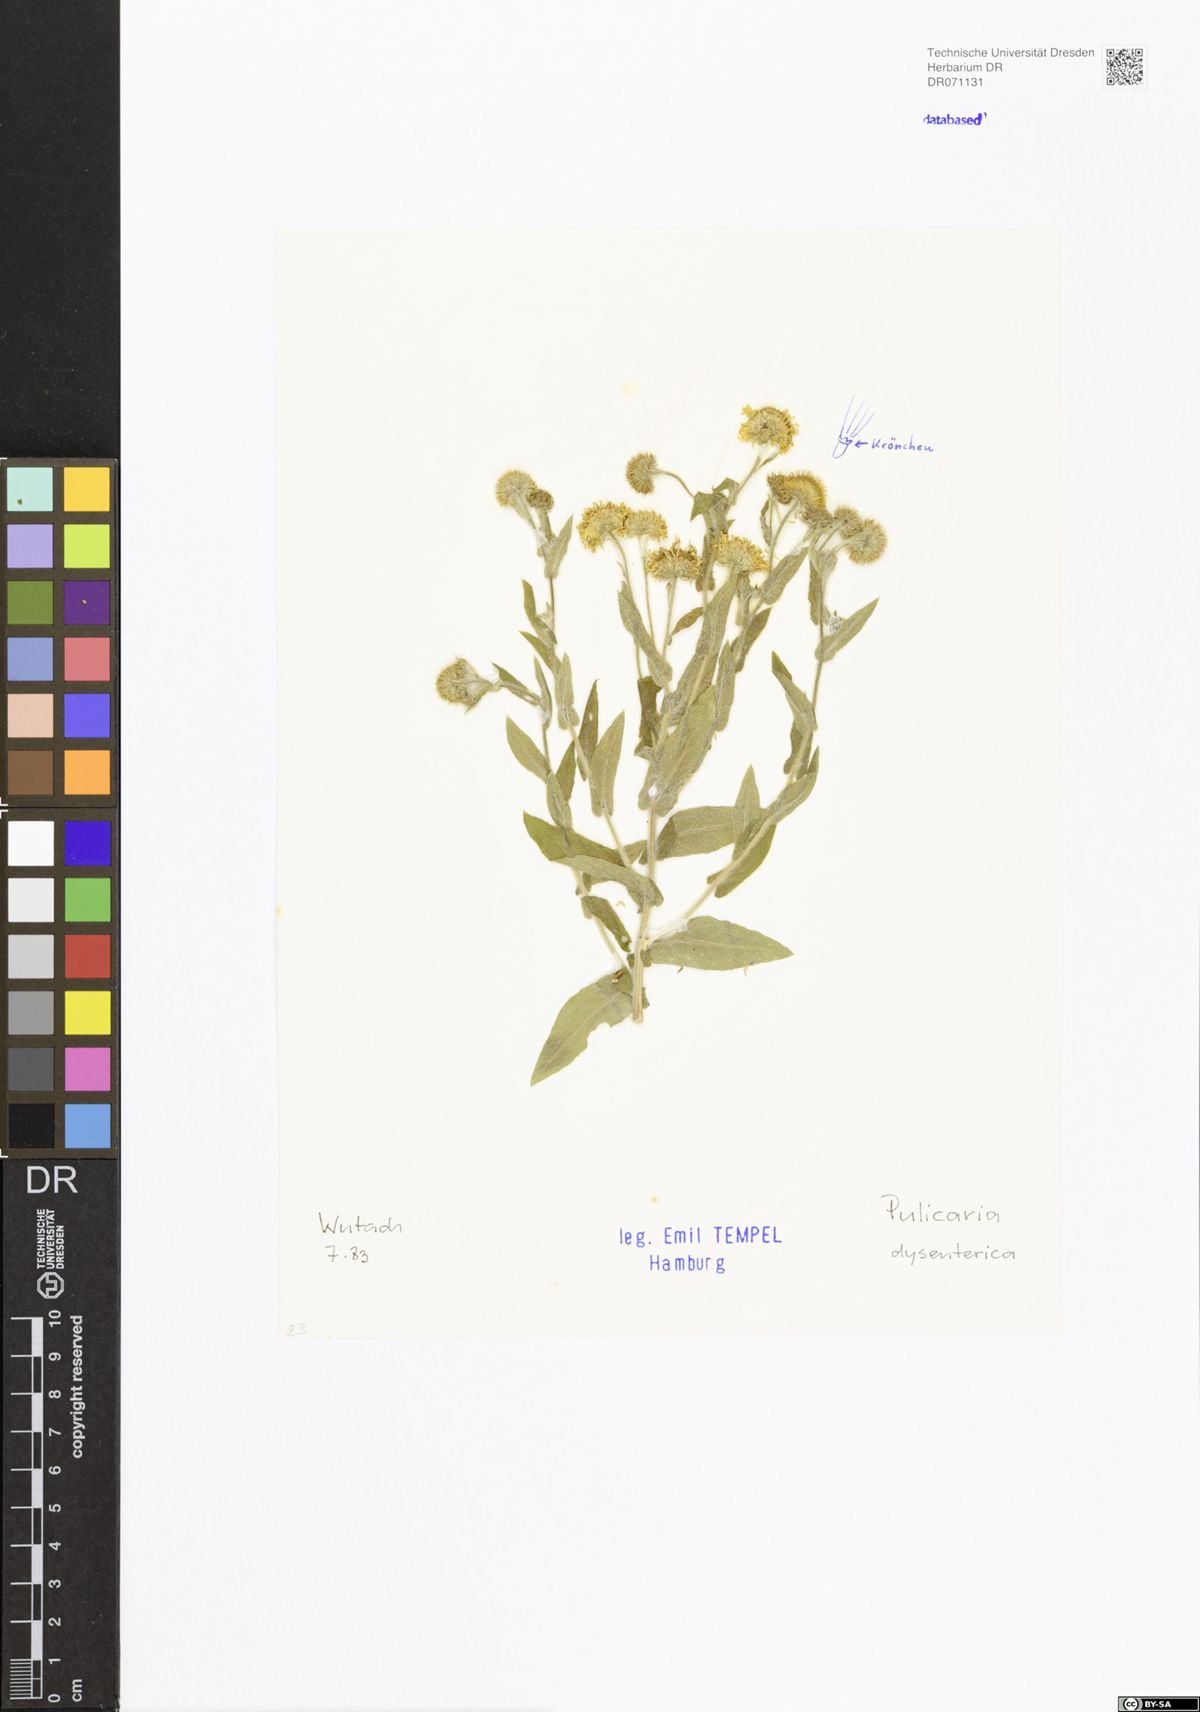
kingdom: Plantae
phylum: Tracheophyta
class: Magnoliopsida
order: Asterales
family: Asteraceae
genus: Pulicaria
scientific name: Pulicaria dysenterica
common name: Common fleabane
